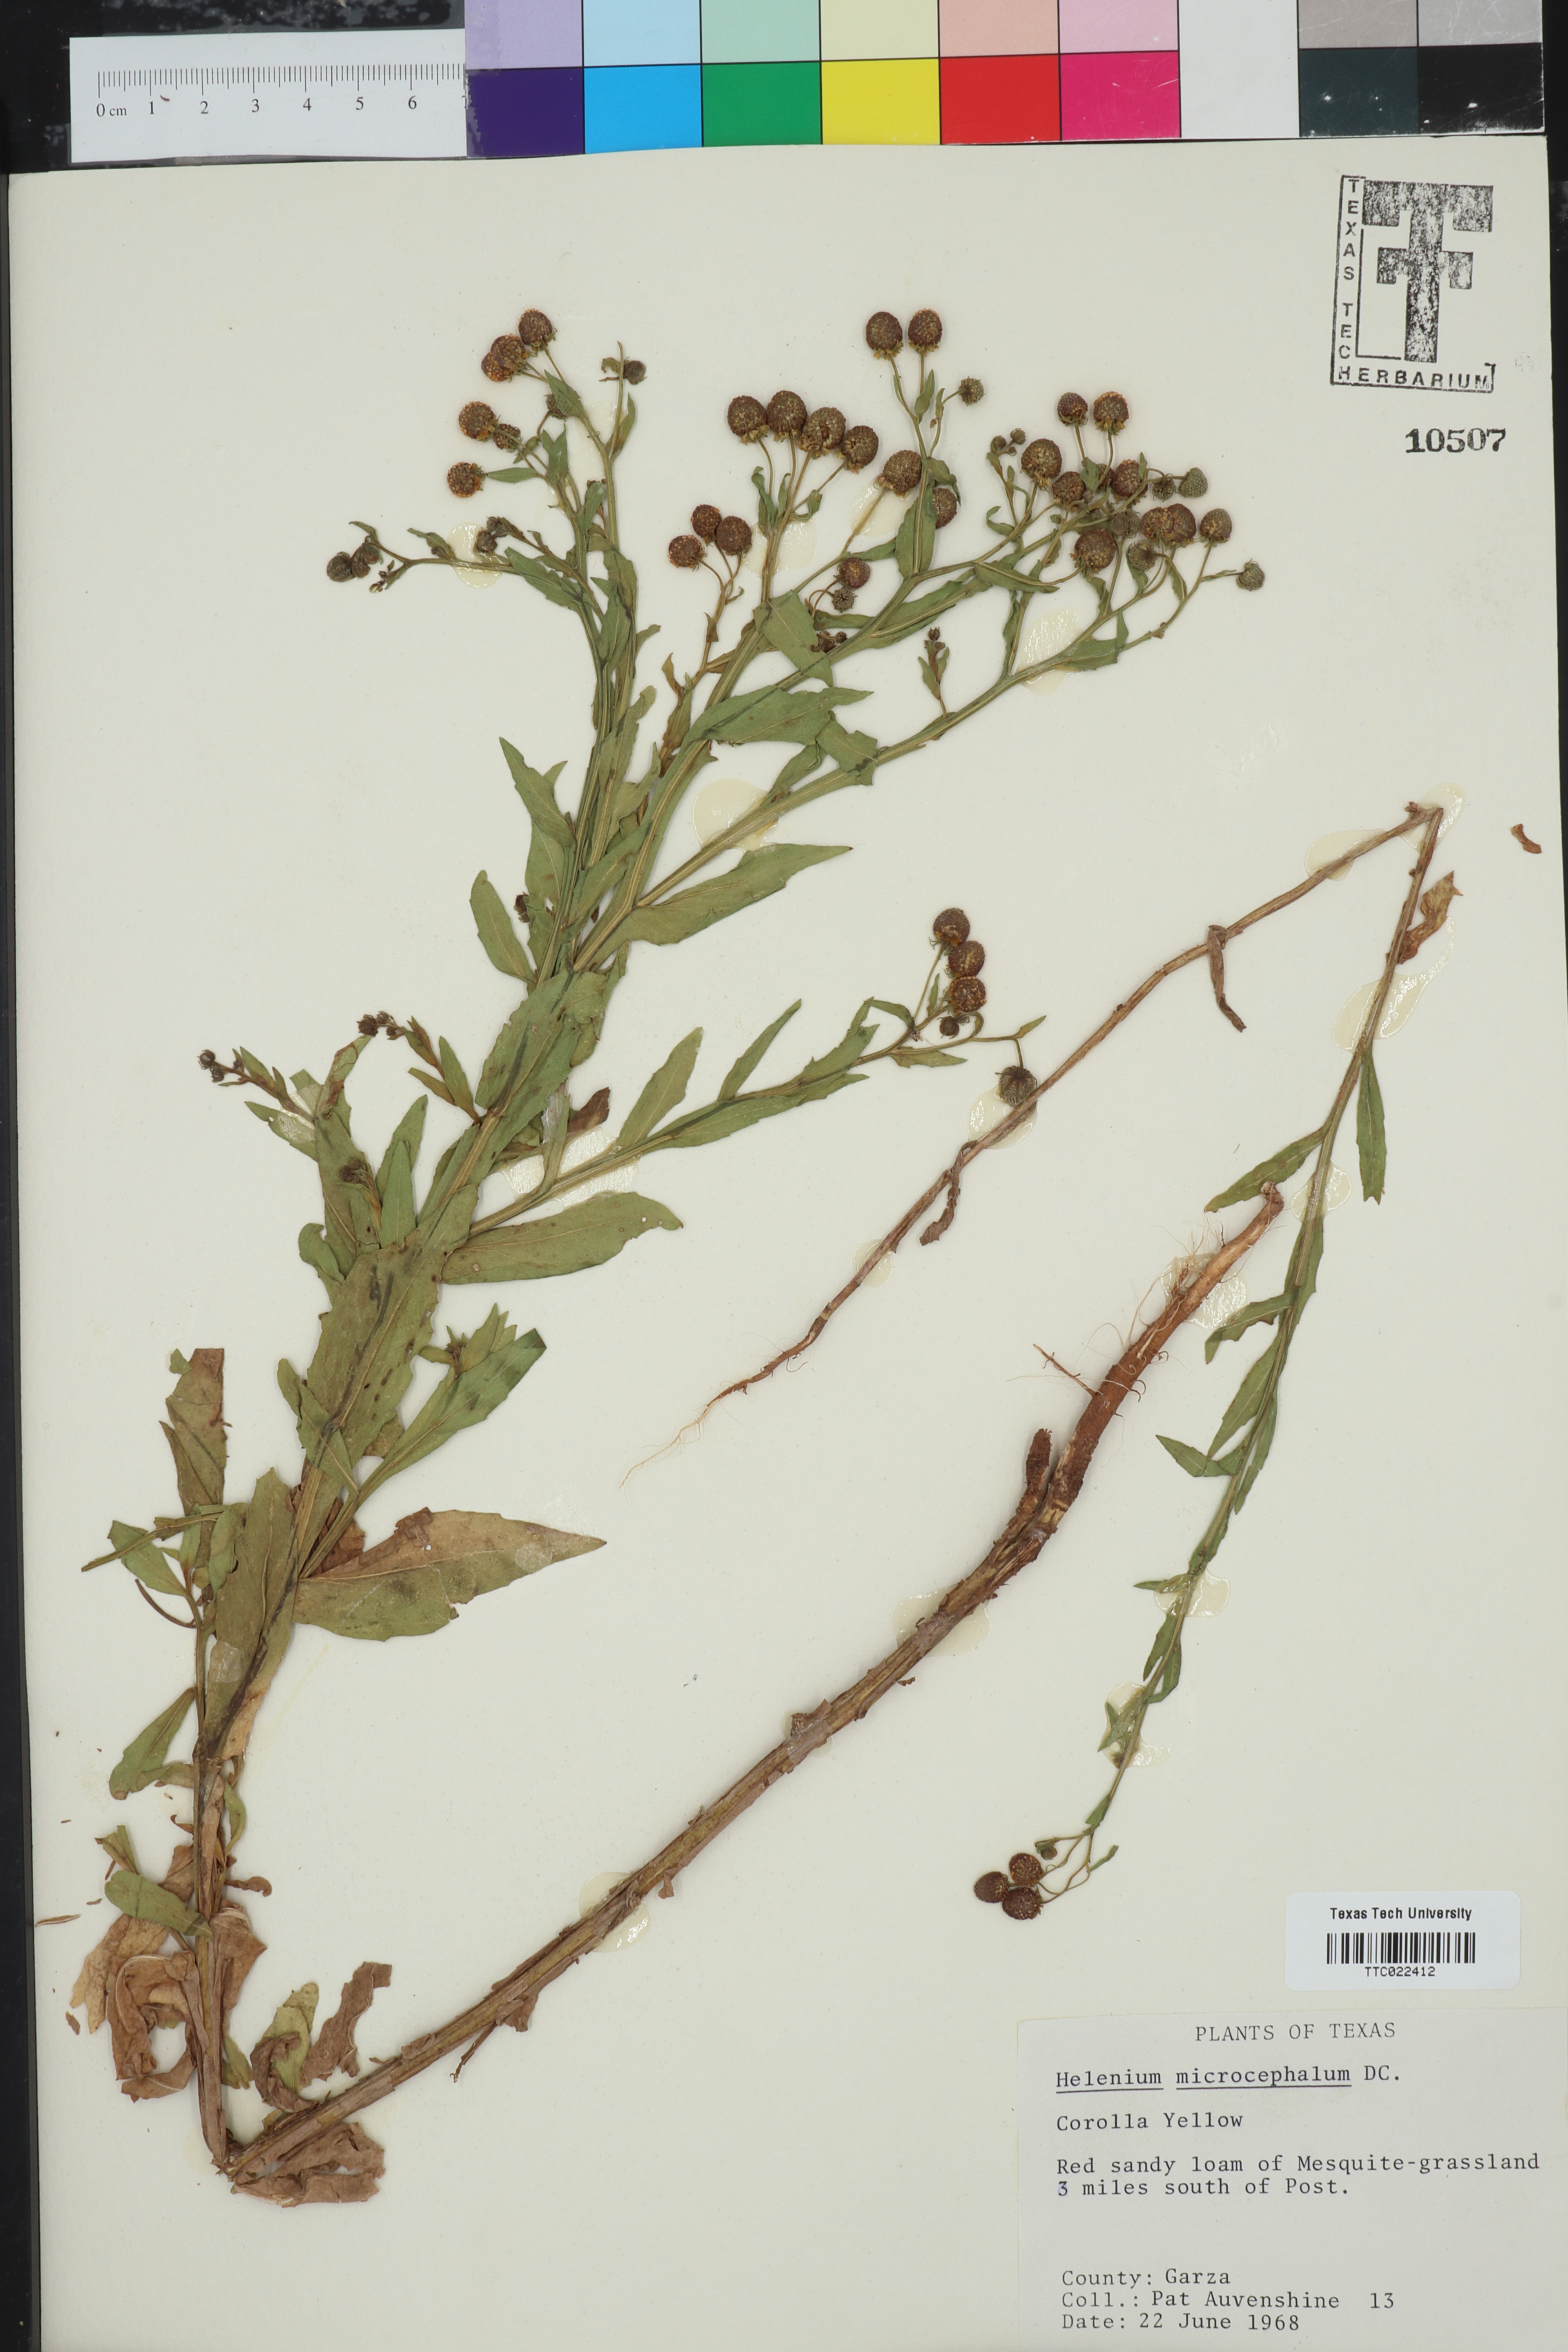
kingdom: Plantae
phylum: Tracheophyta
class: Magnoliopsida
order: Asterales
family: Asteraceae
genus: Helenium
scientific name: Helenium microcephalum
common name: Smallhead sneezeweed
